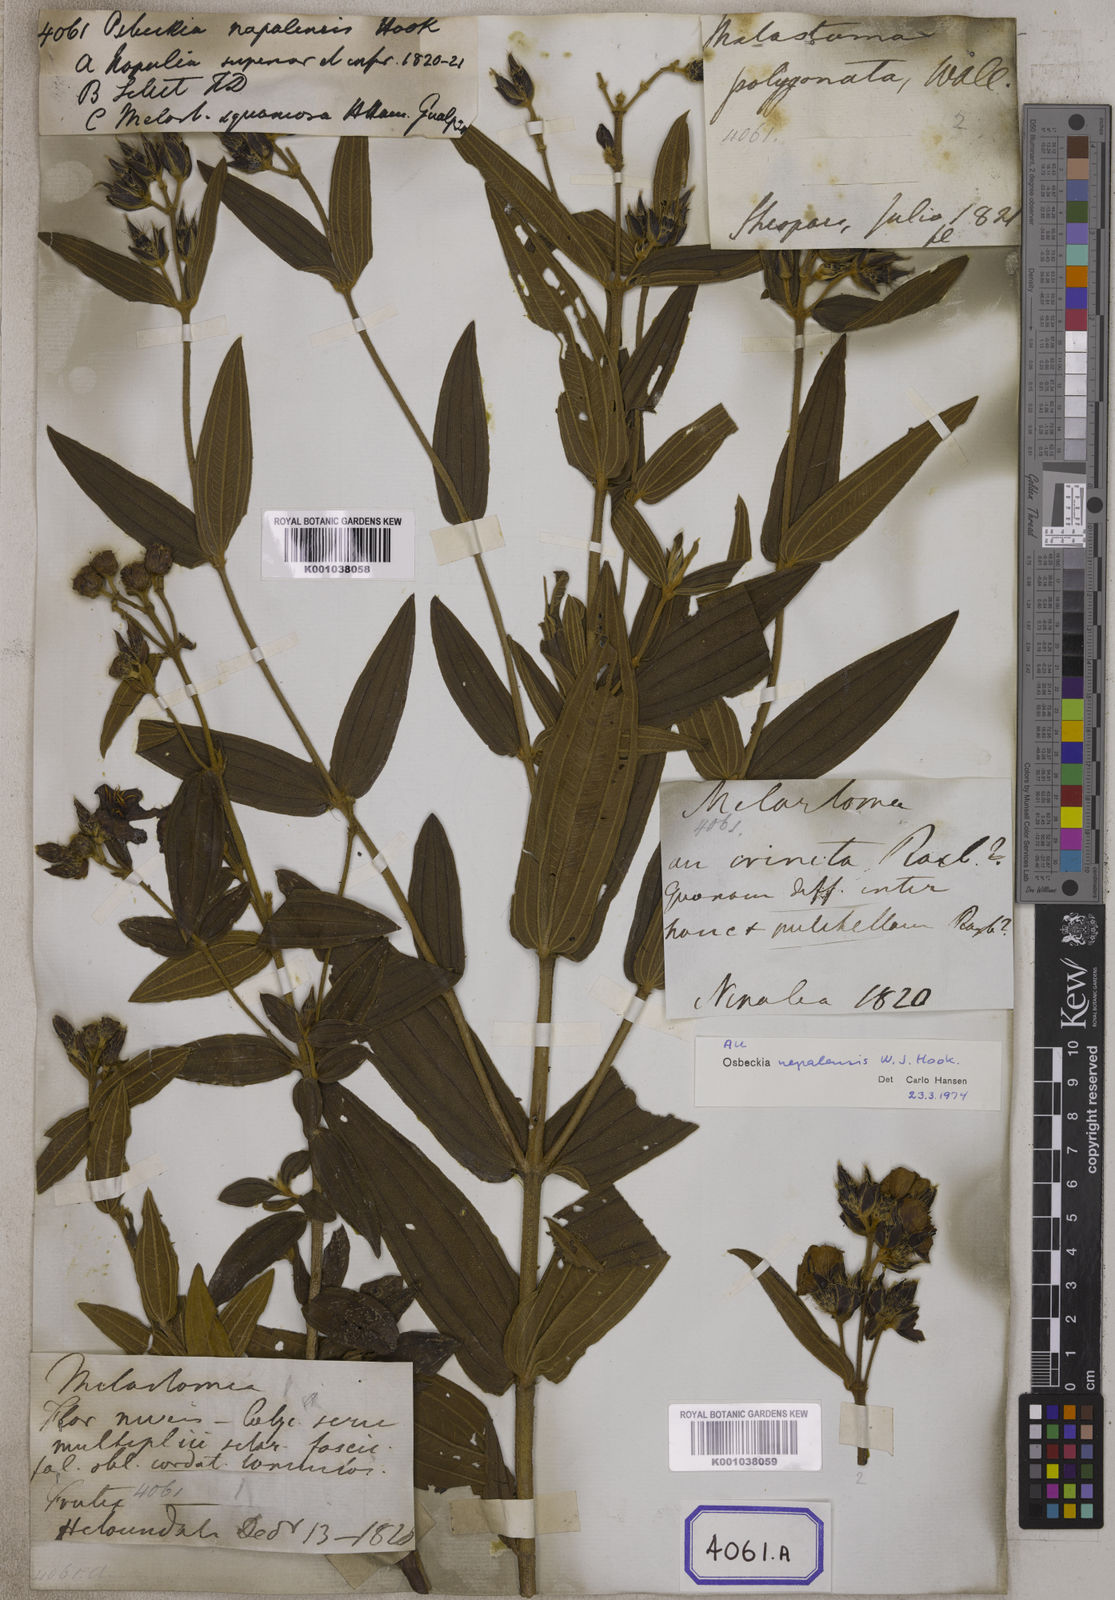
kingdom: Plantae
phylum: Tracheophyta
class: Magnoliopsida
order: Myrtales
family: Melastomataceae
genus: Osbeckia
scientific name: Osbeckia nepalensis
